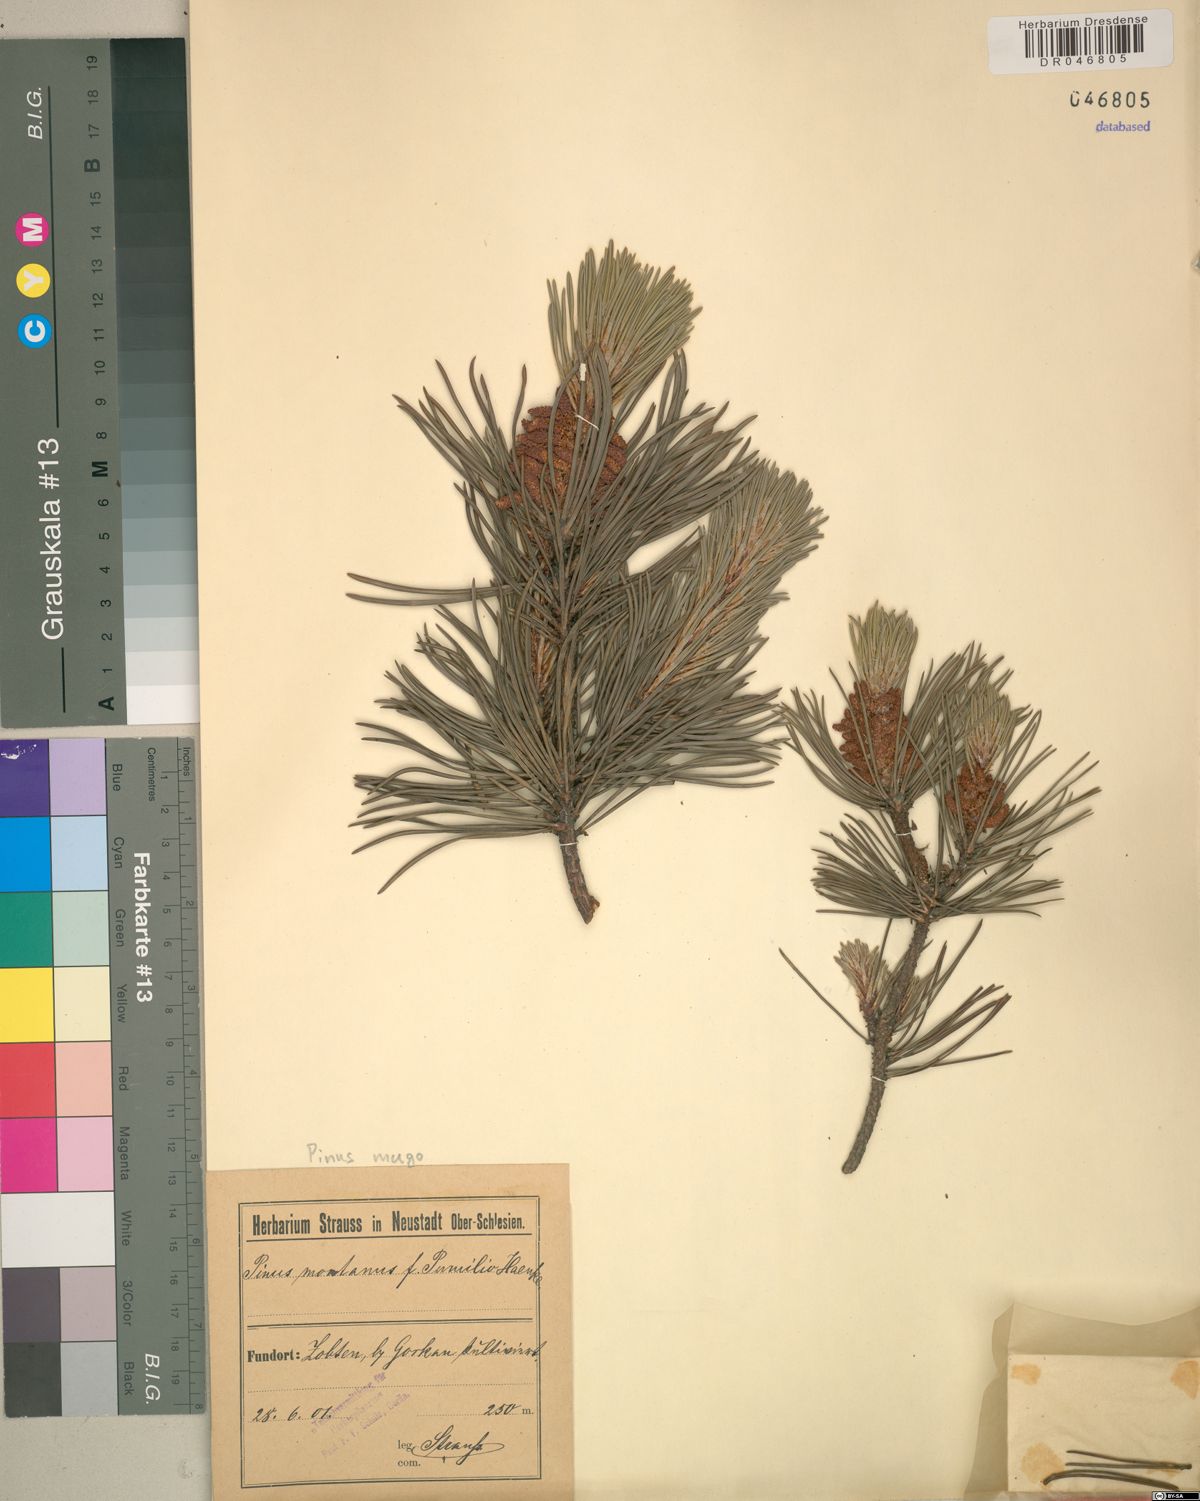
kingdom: Plantae
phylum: Tracheophyta
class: Pinopsida
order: Pinales
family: Pinaceae
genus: Pinus
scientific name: Pinus mugo
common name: Mugo pine
